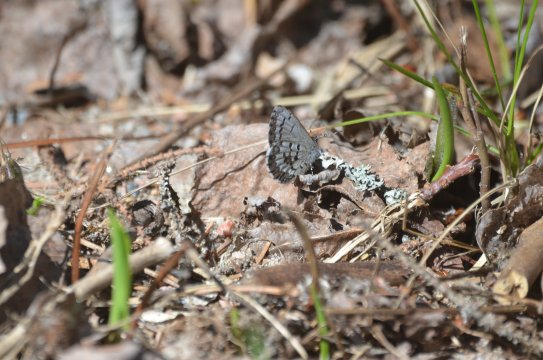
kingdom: Animalia
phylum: Arthropoda
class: Insecta
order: Lepidoptera
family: Lycaenidae
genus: Celastrina
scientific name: Celastrina lucia
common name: Northern Spring Azure
